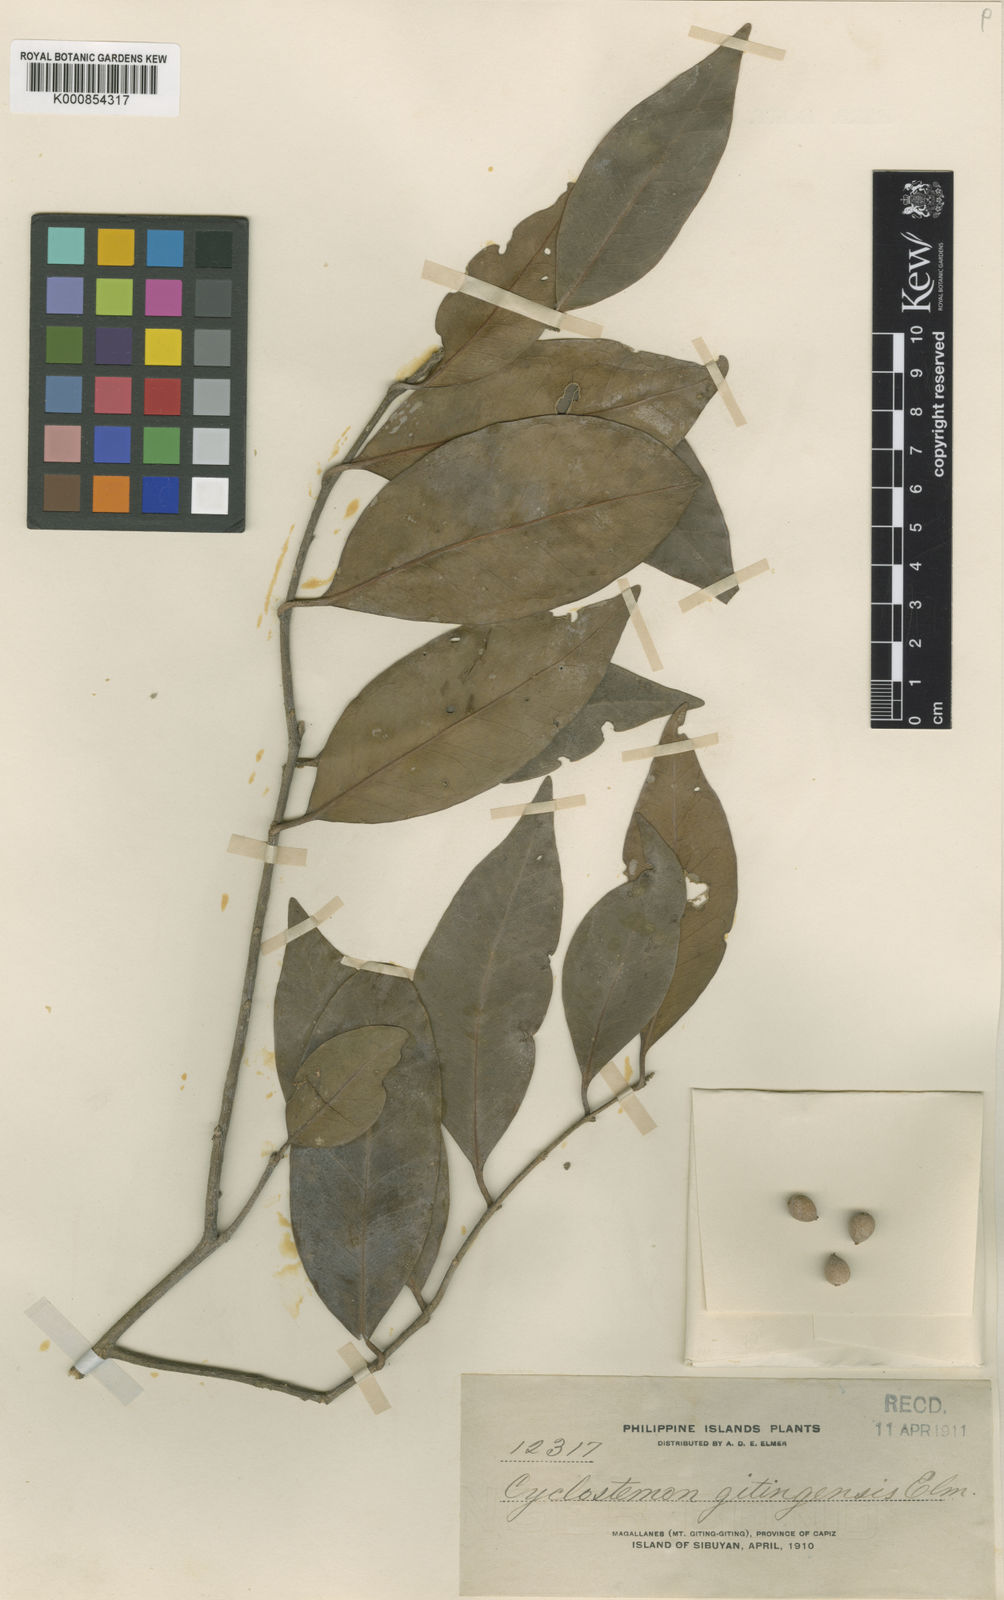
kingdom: Plantae
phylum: Tracheophyta
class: Magnoliopsida
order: Malpighiales
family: Putranjivaceae
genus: Drypetes
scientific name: Drypetes gitingensis
